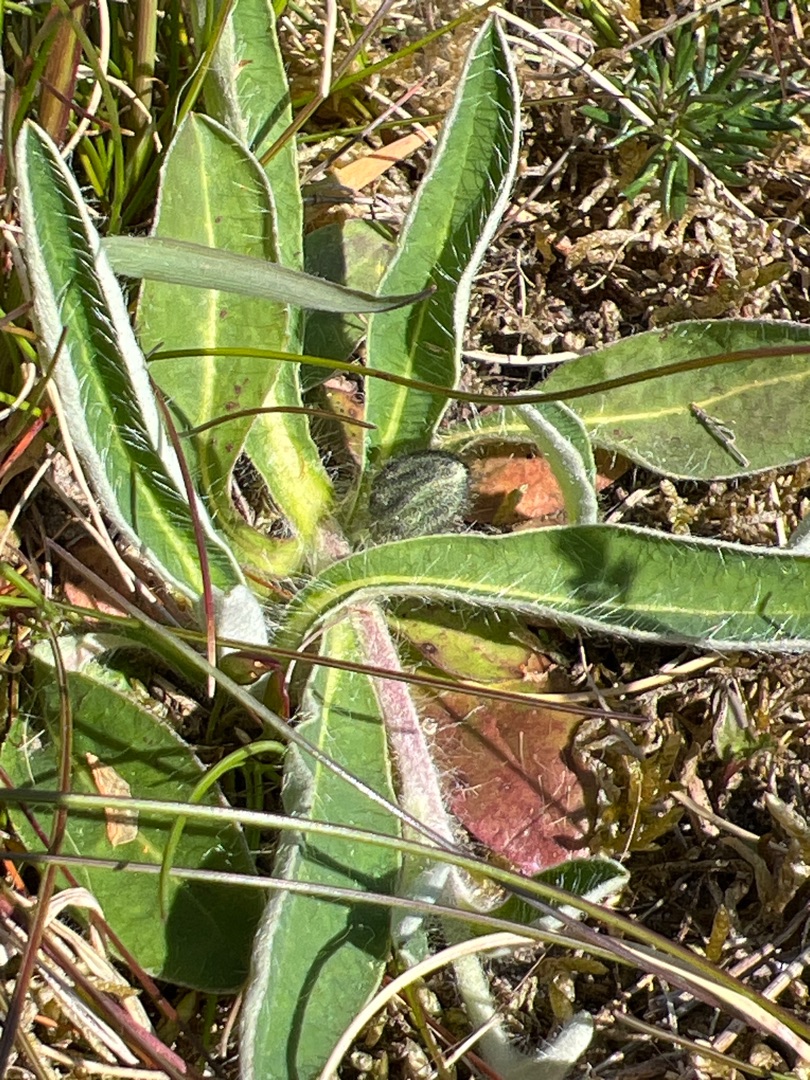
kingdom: Plantae
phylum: Tracheophyta
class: Magnoliopsida
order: Asterales
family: Asteraceae
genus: Pilosella
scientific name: Pilosella officinarum
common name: Håret høgeurt
